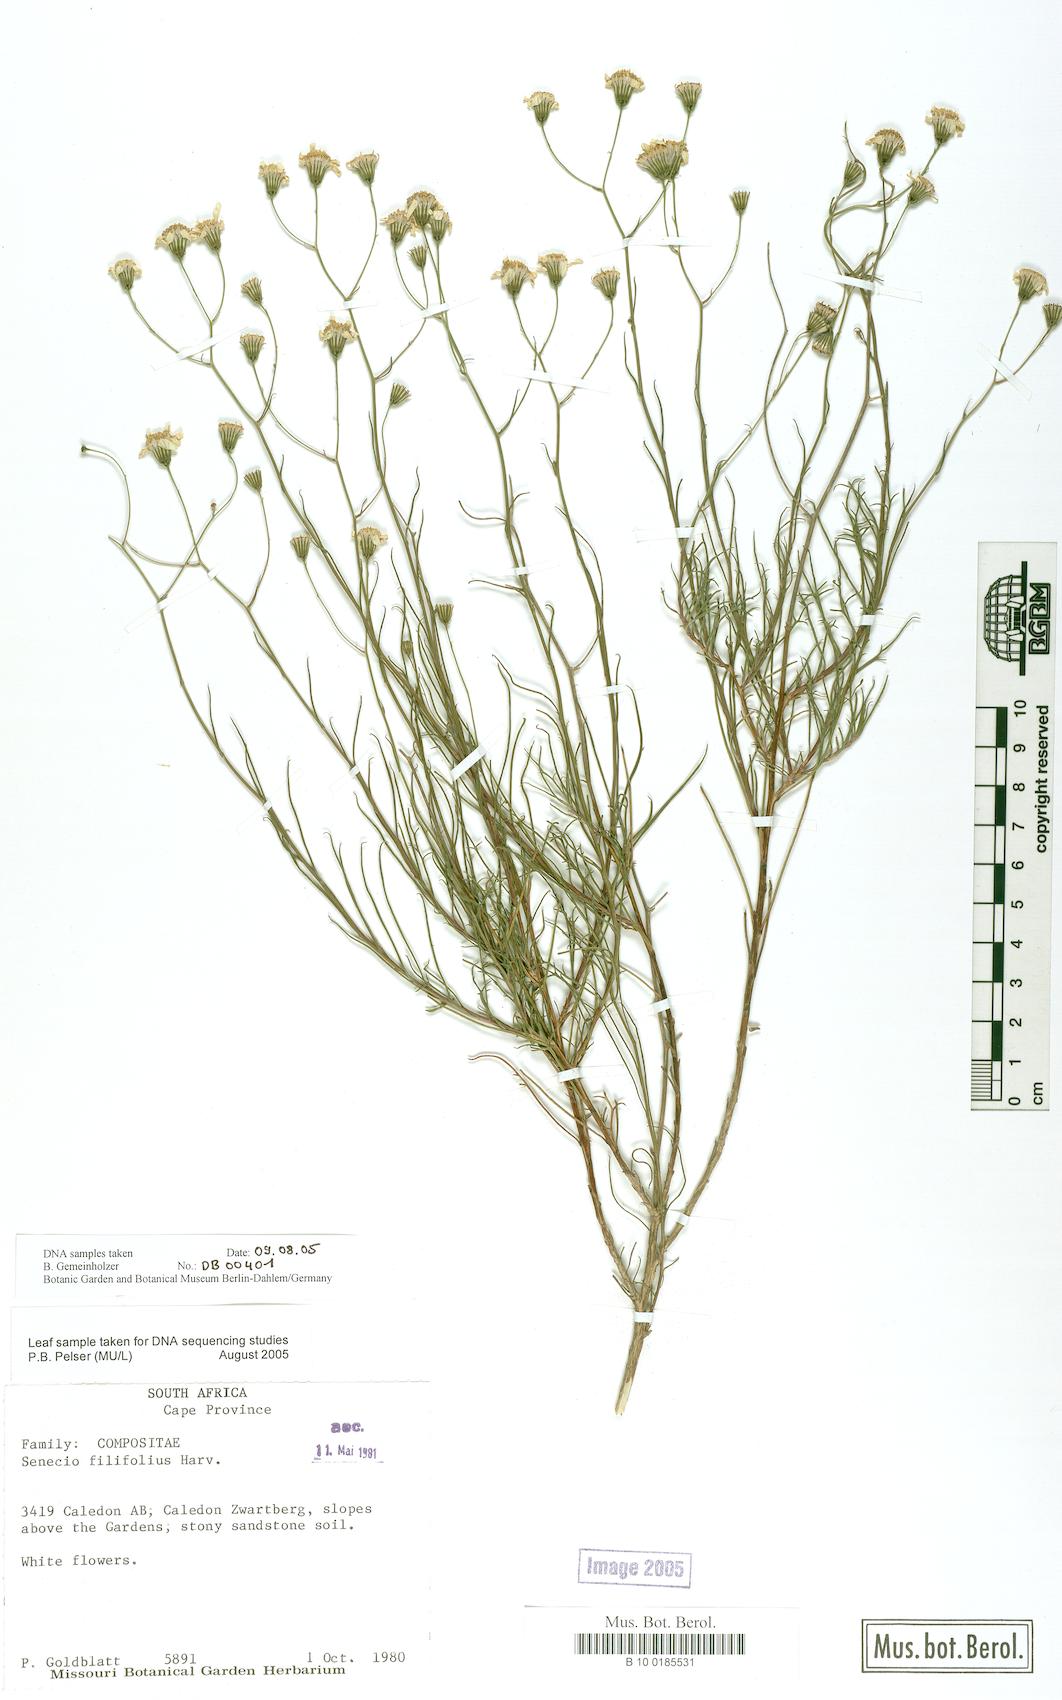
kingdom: Plantae
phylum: Tracheophyta
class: Magnoliopsida
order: Asterales
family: Asteraceae
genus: Senecio
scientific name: Senecio mitophyllus
